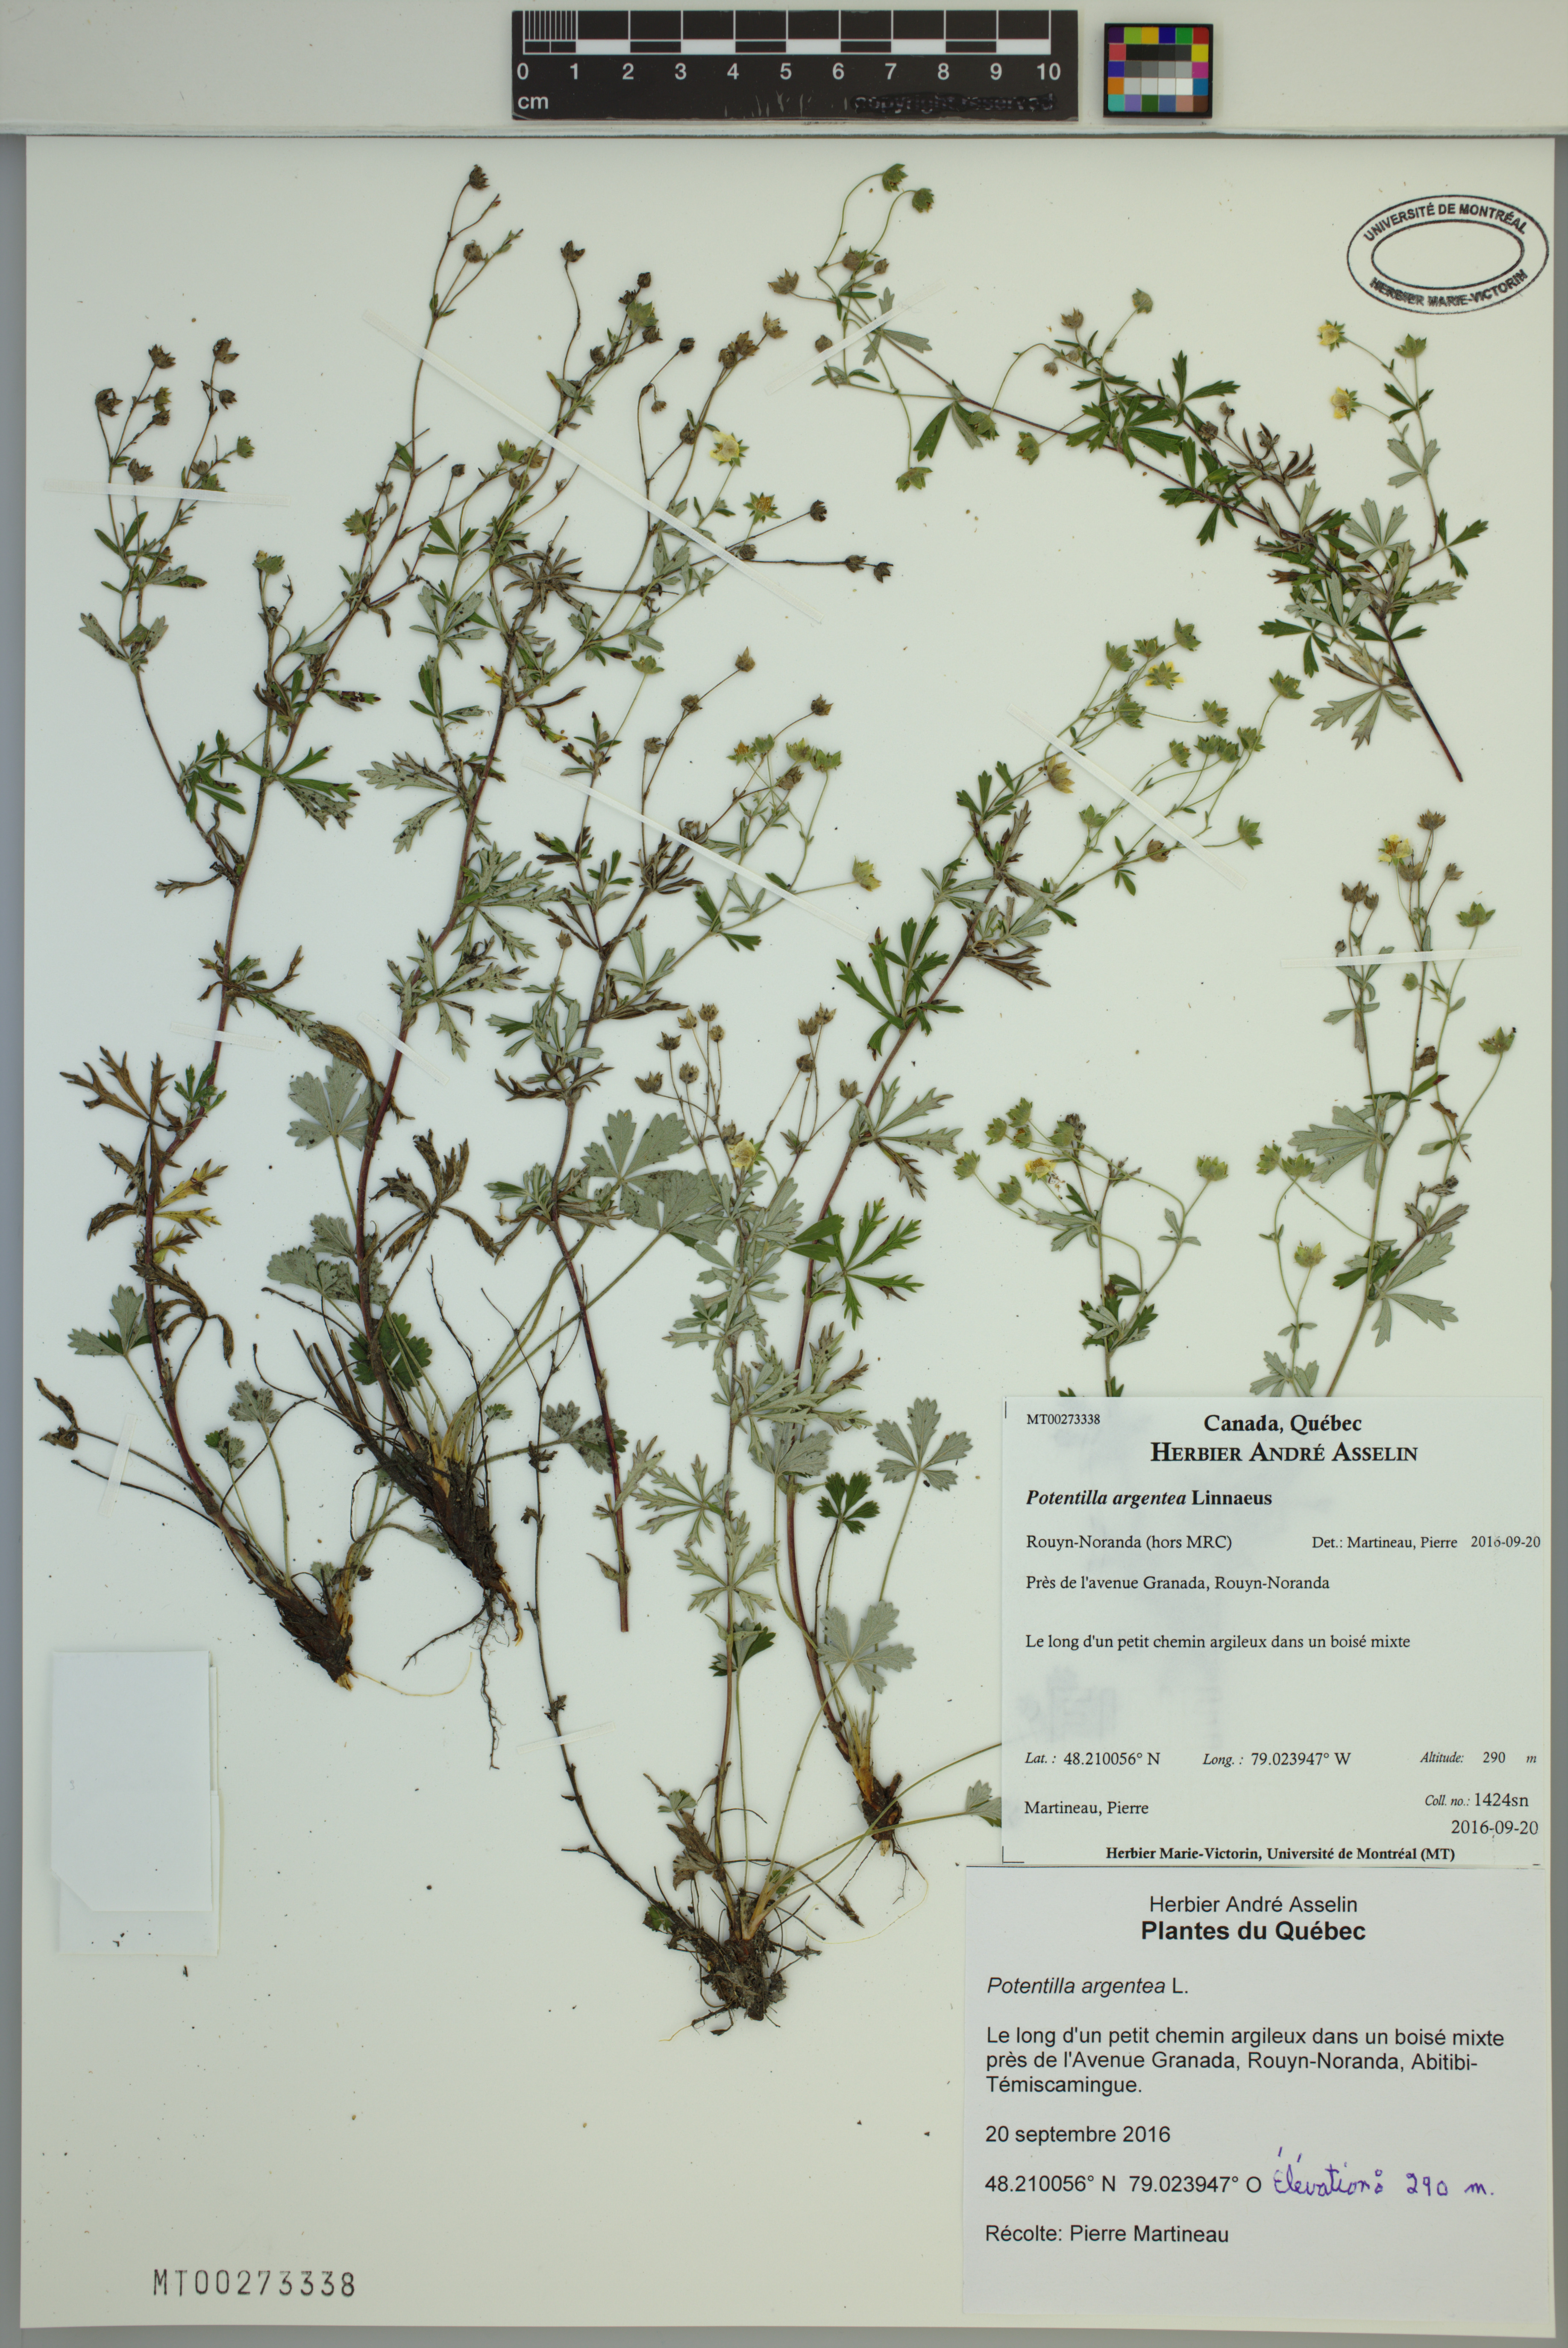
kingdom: Plantae
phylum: Tracheophyta
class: Magnoliopsida
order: Rosales
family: Rosaceae
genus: Potentilla
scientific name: Potentilla argentea
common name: Hoary cinquefoil
